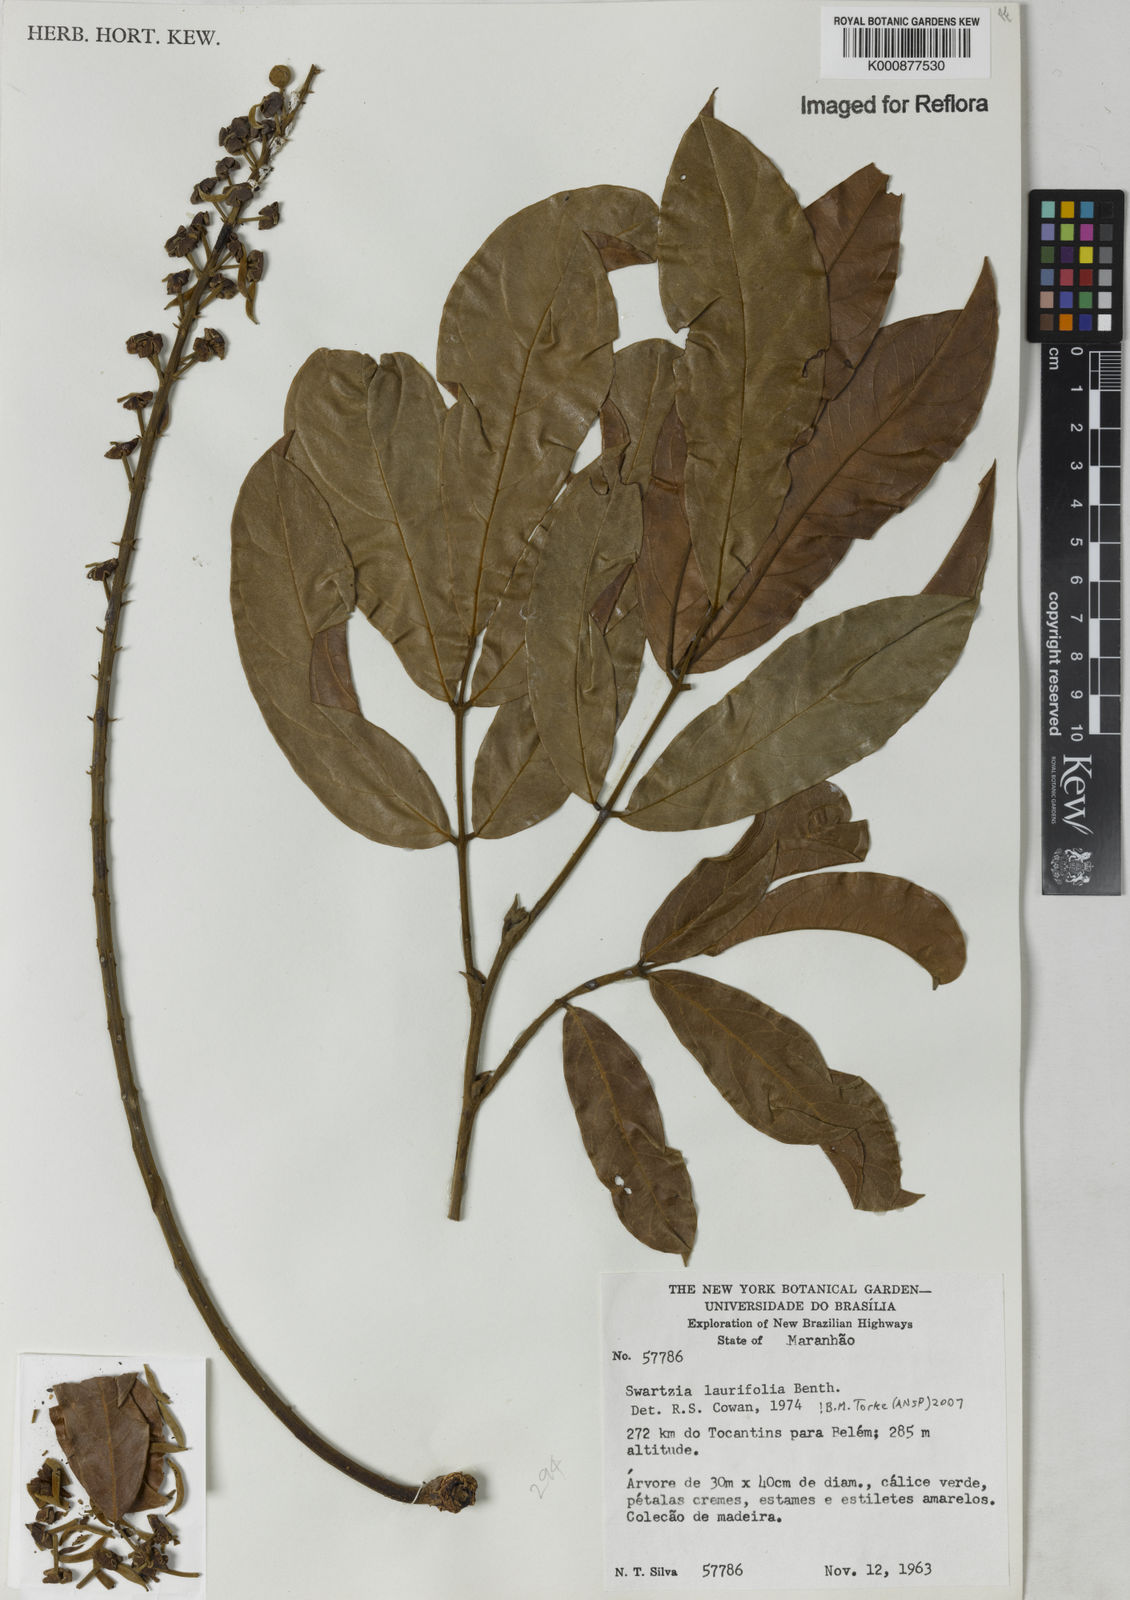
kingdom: Plantae
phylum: Tracheophyta
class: Magnoliopsida
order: Fabales
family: Fabaceae
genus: Swartzia
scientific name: Swartzia laurifolia
